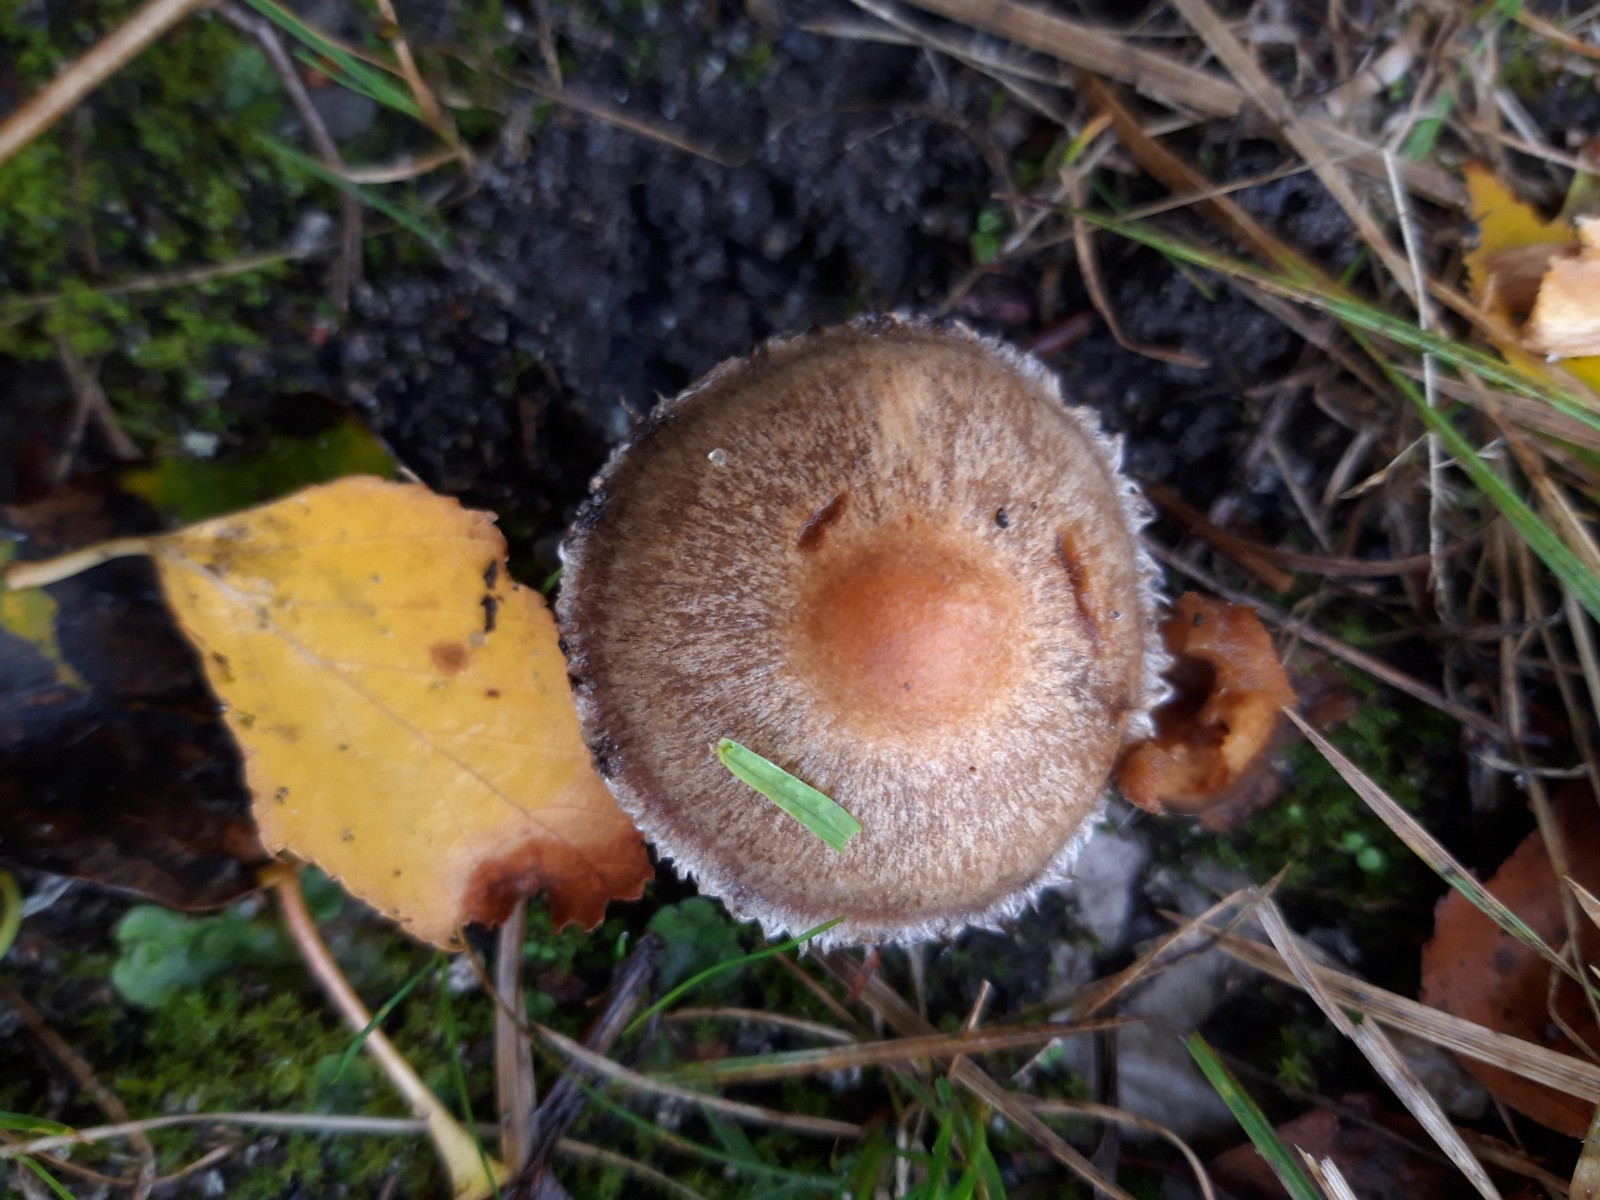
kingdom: Fungi
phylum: Basidiomycota
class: Agaricomycetes
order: Agaricales
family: Psathyrellaceae
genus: Lacrymaria
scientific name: Lacrymaria lacrymabunda
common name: grædende mørkhat
